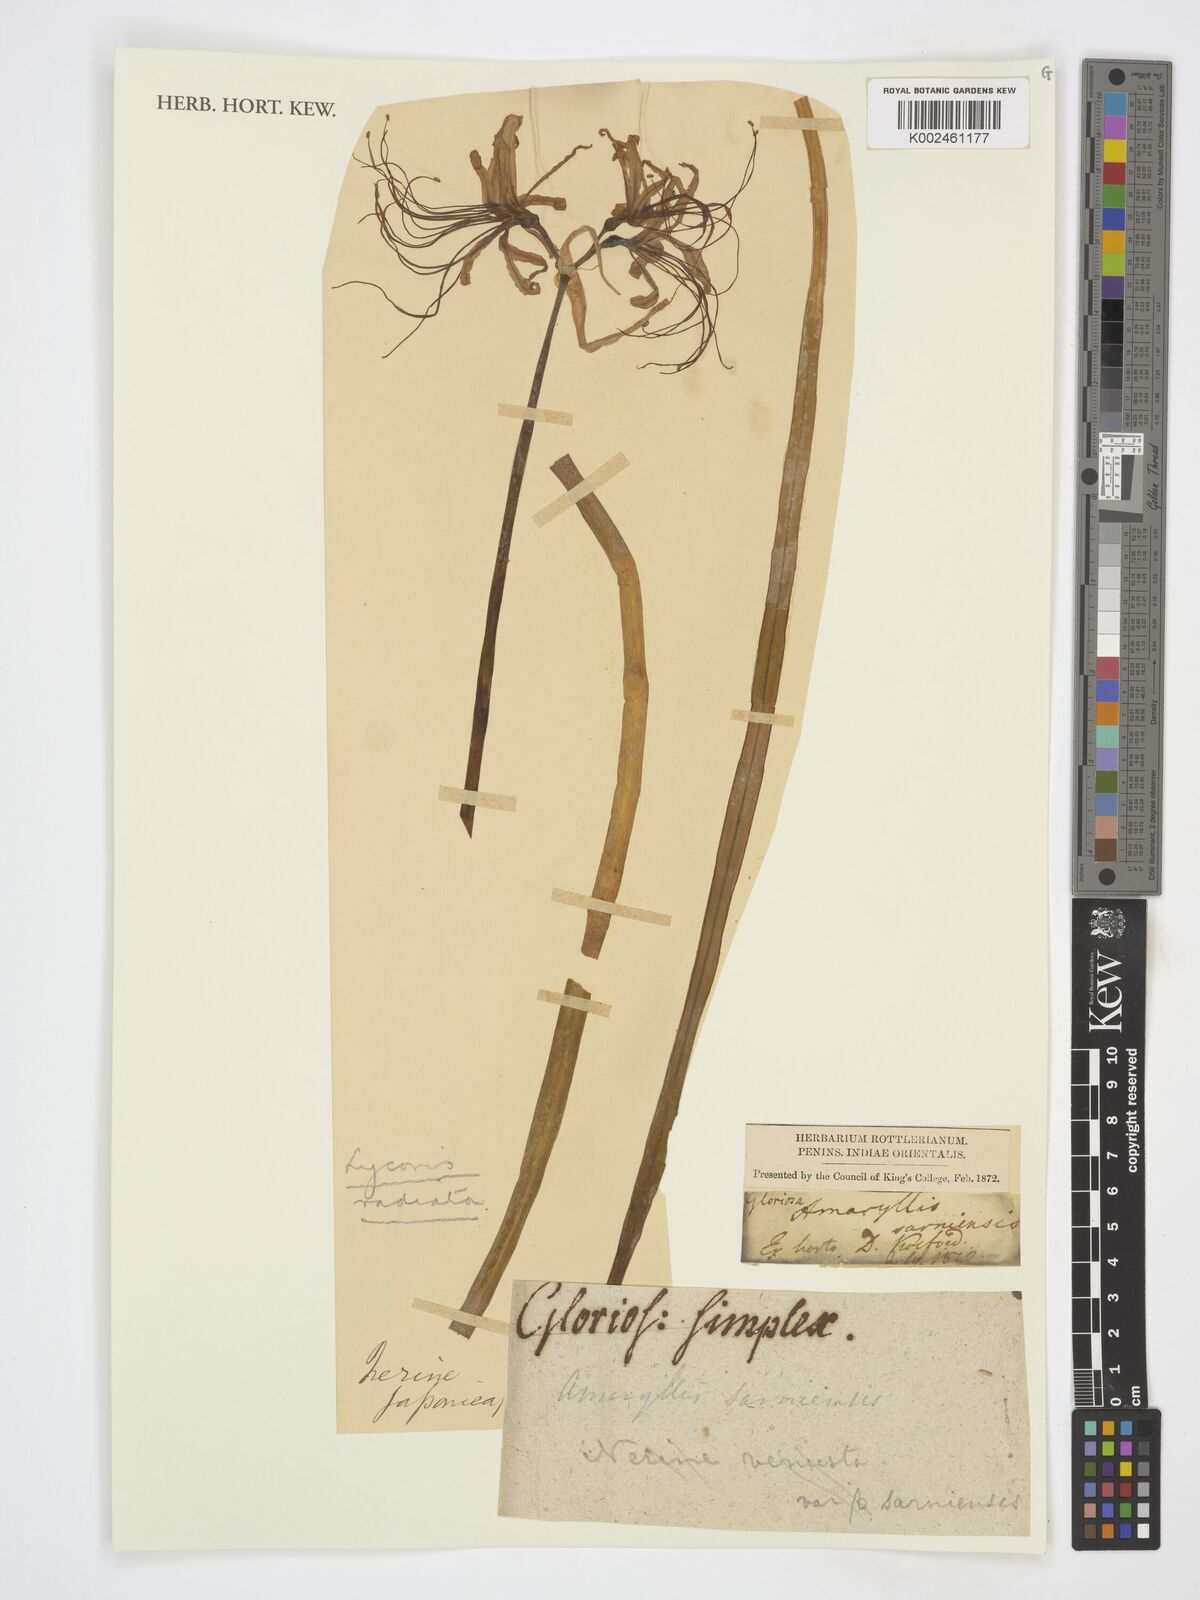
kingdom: Plantae
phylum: Tracheophyta
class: Liliopsida
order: Asparagales
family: Amaryllidaceae
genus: Lycoris
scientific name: Lycoris
